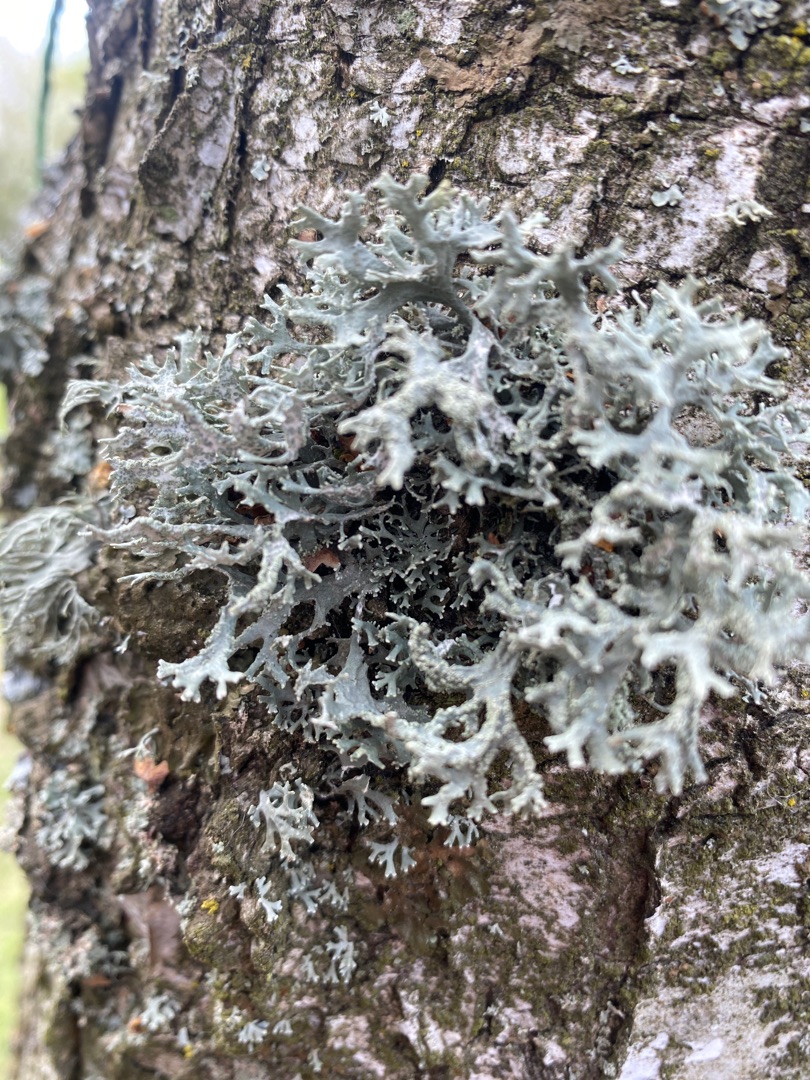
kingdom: Fungi
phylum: Ascomycota
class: Lecanoromycetes
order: Lecanorales
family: Parmeliaceae
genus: Evernia
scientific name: Evernia prunastri
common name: Almindelig slåenlav
